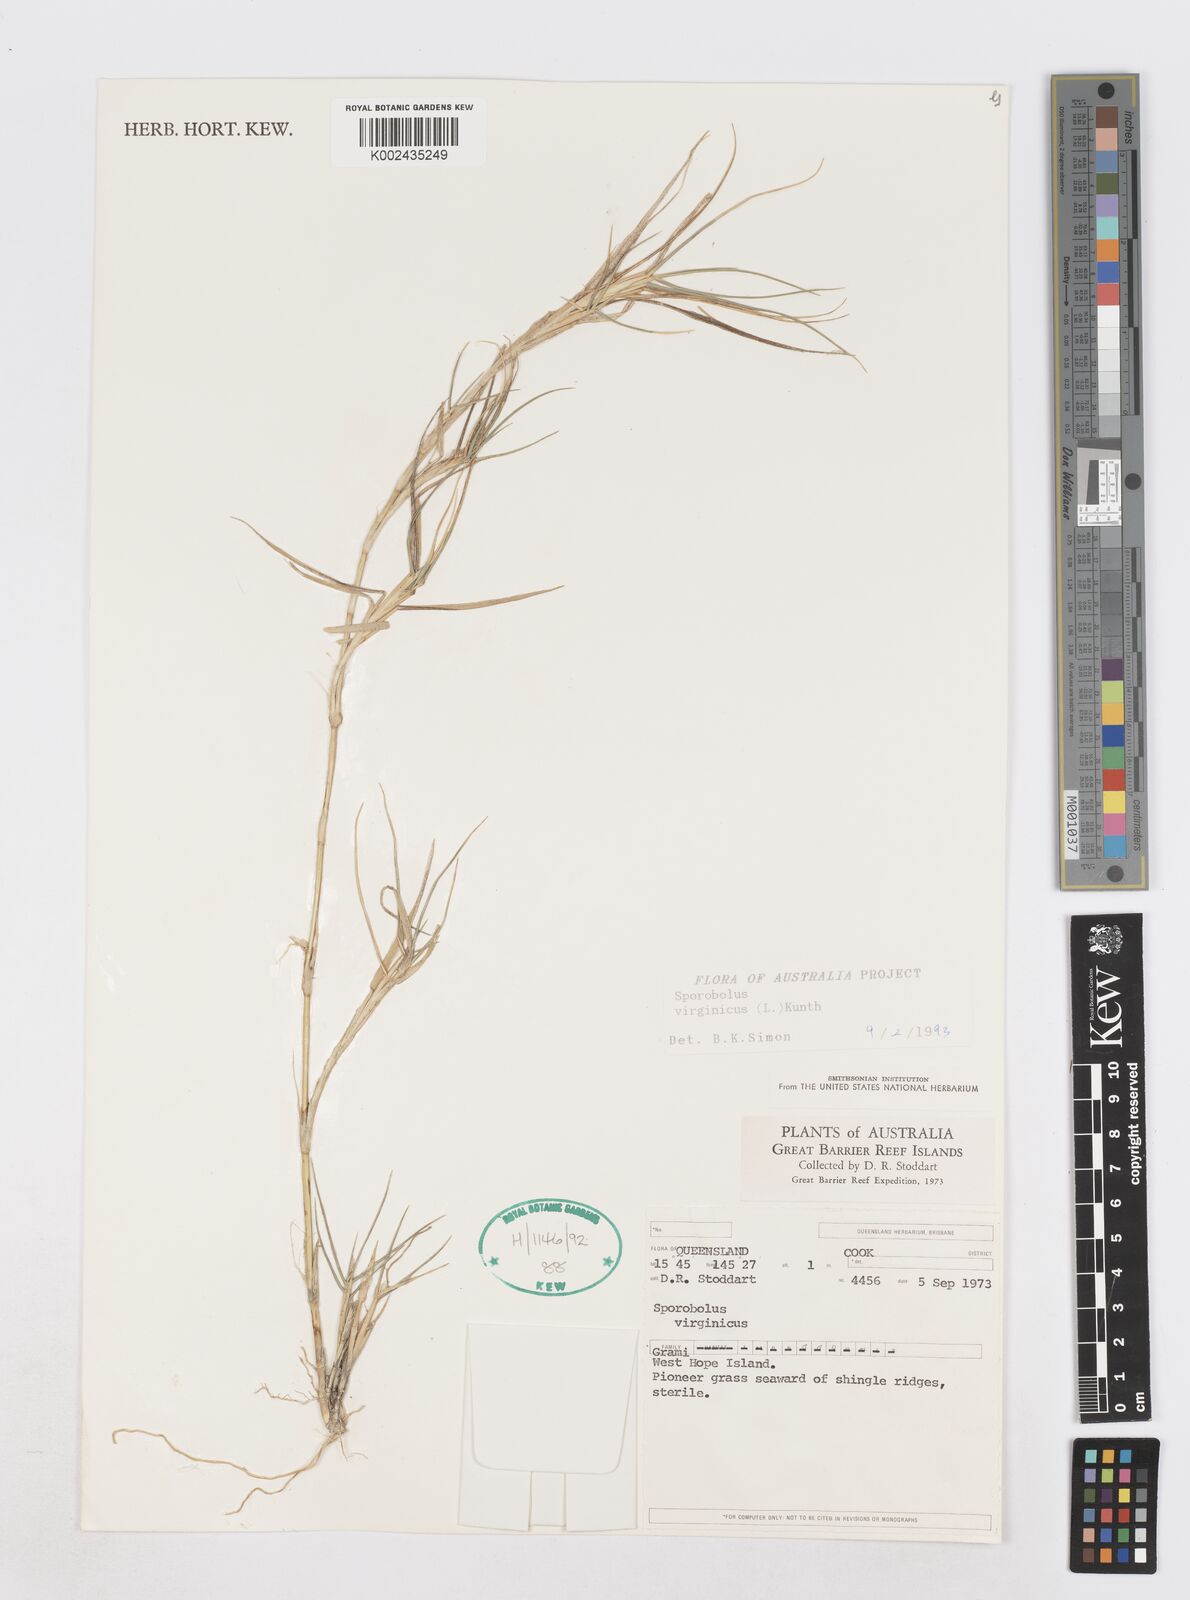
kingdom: Plantae
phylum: Tracheophyta
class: Liliopsida
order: Poales
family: Poaceae
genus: Sporobolus
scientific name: Sporobolus virginicus
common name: Beach dropseed
